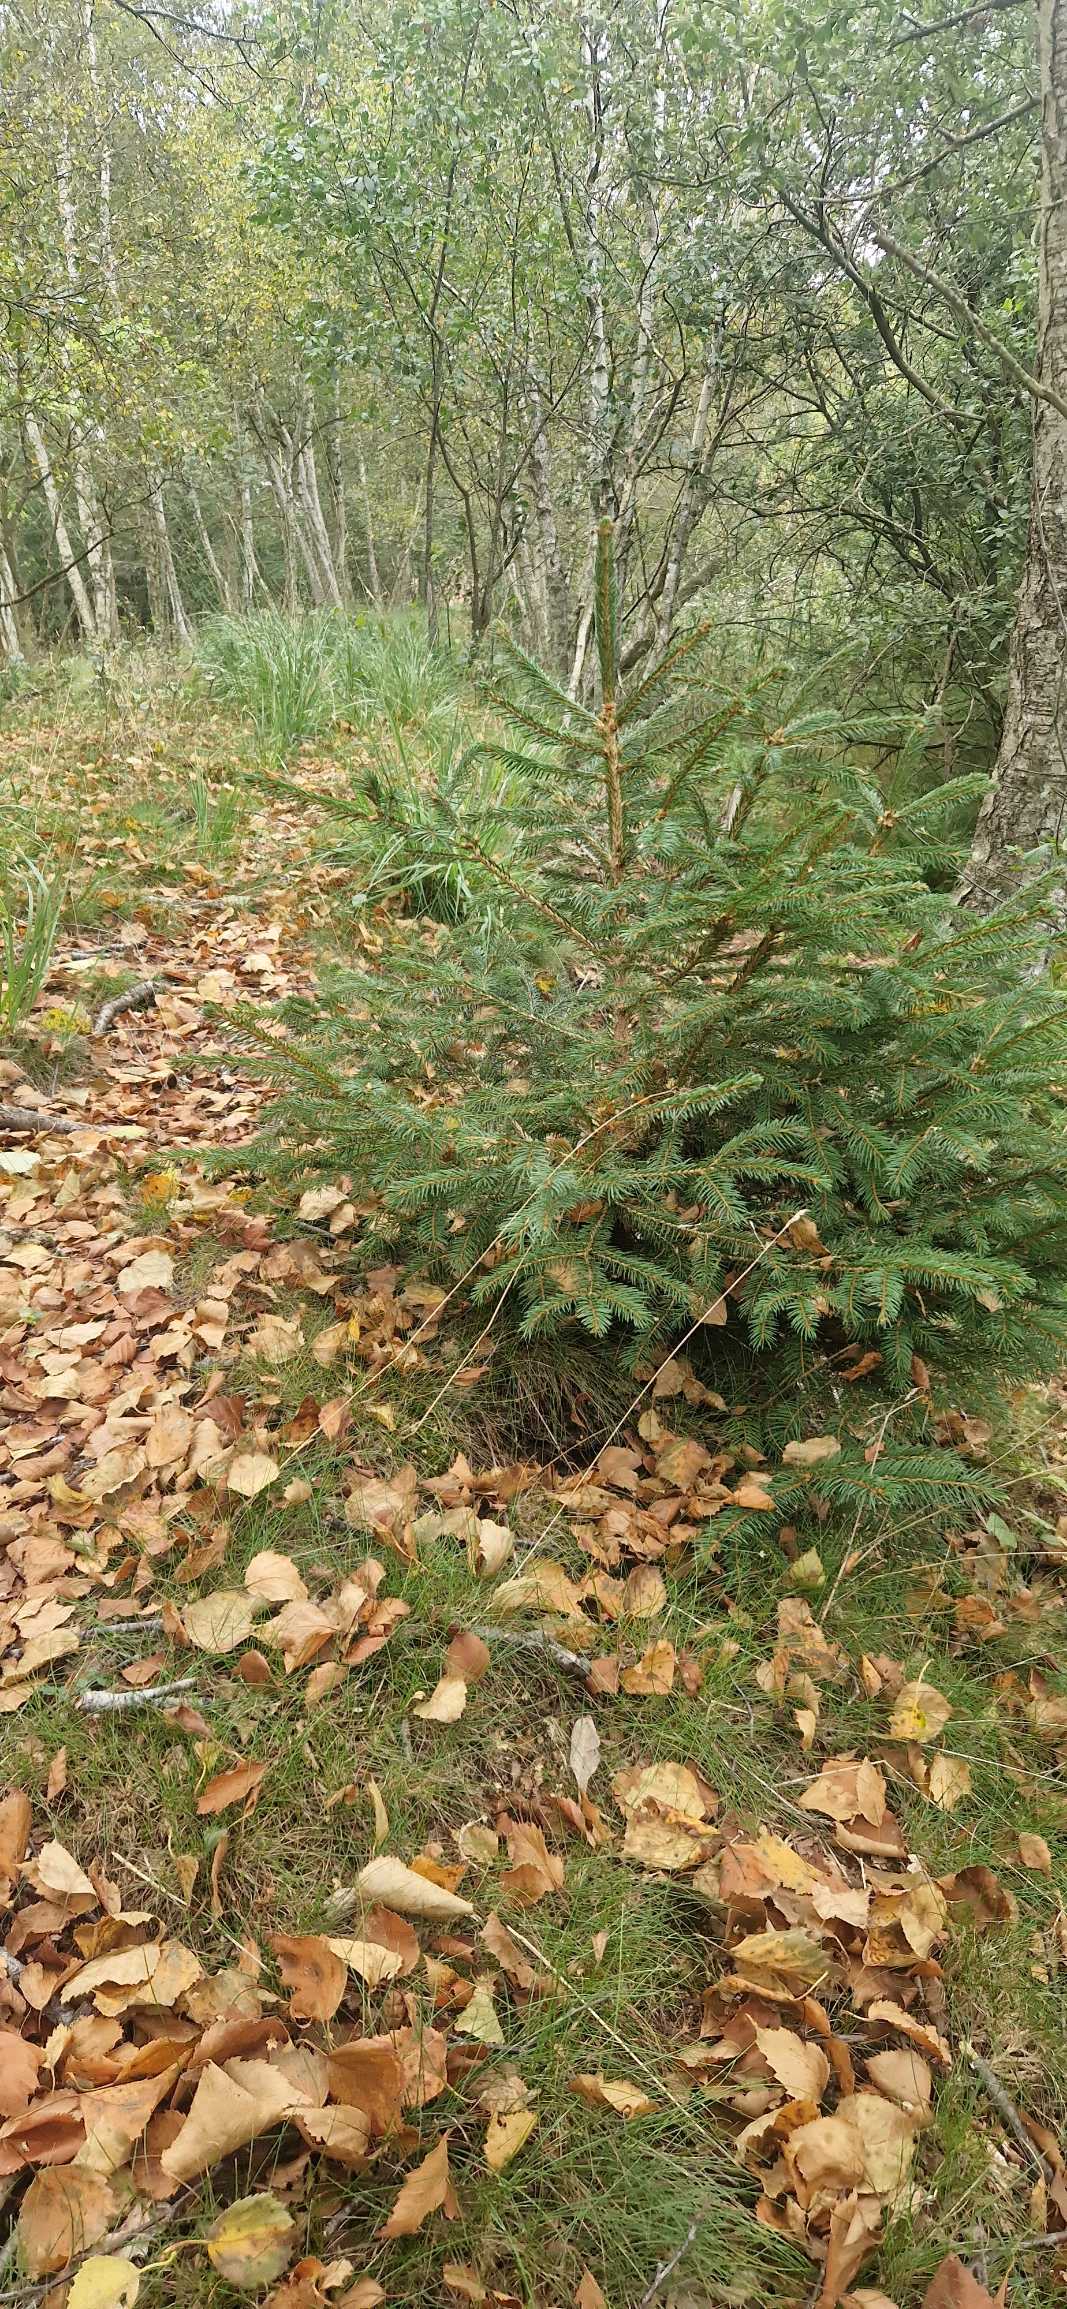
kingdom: Plantae
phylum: Tracheophyta
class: Pinopsida
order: Pinales
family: Pinaceae
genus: Picea
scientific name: Picea abies
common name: Rød-gran
